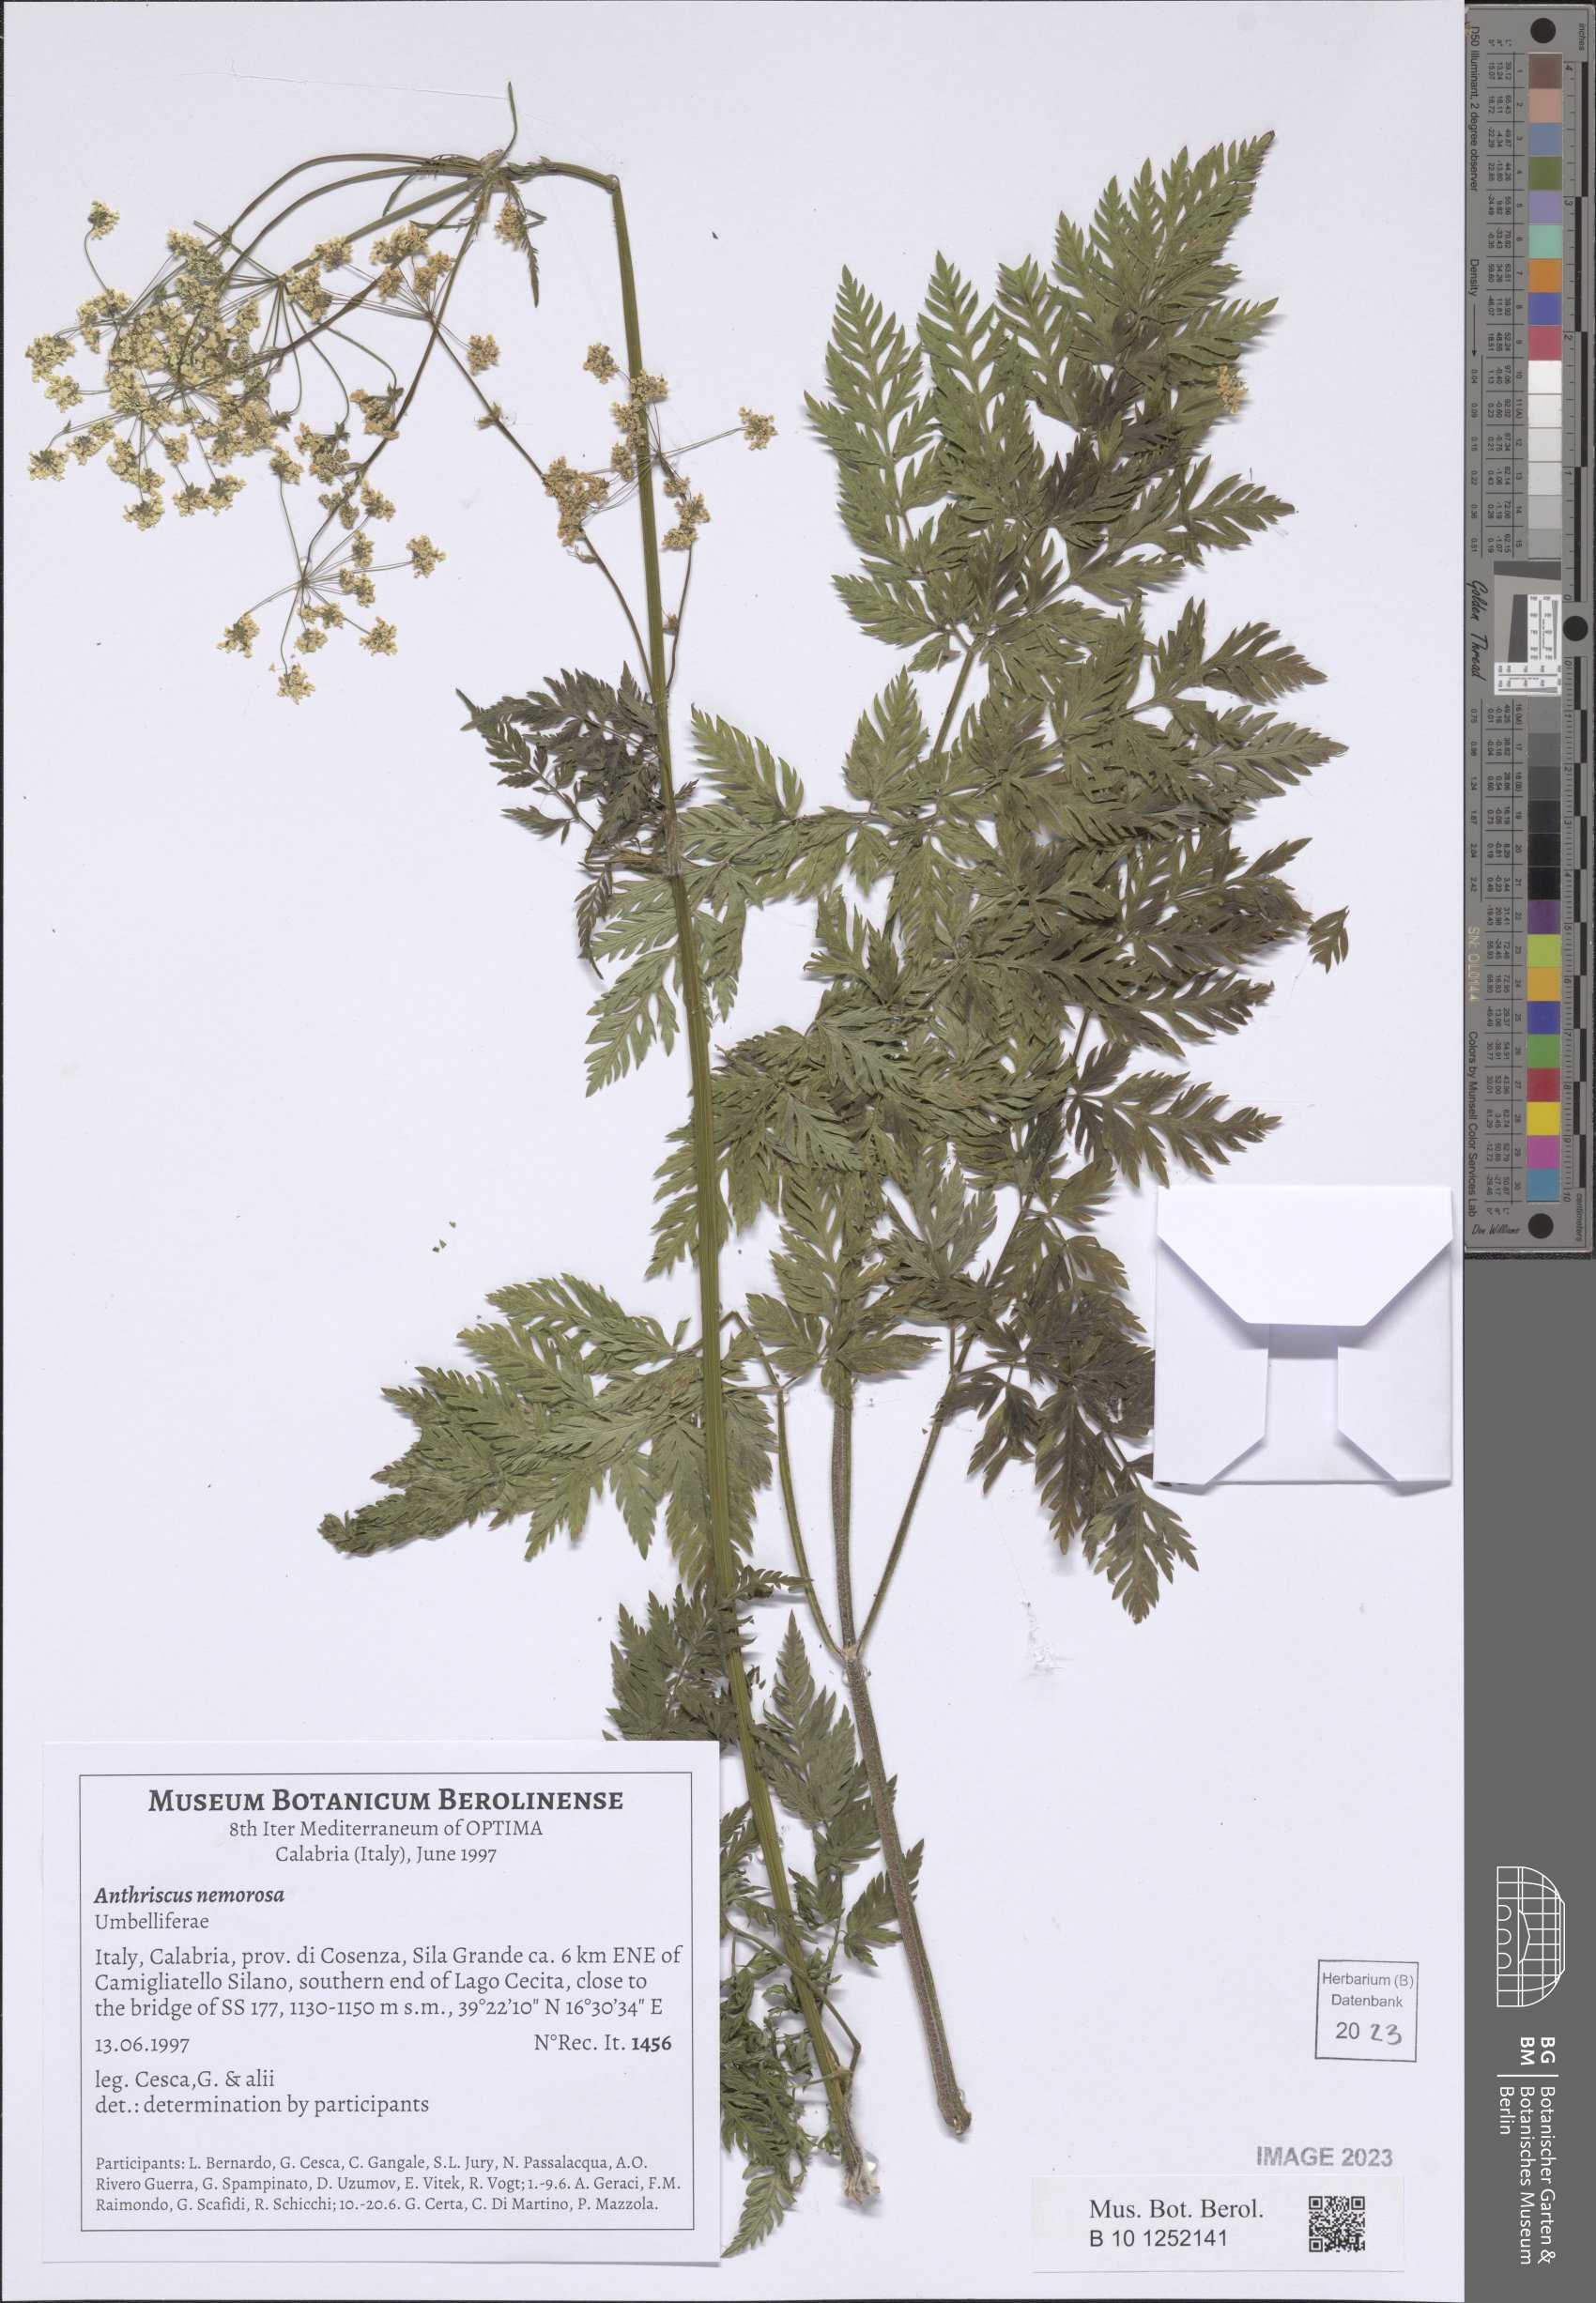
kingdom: Plantae
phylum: Tracheophyta
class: Magnoliopsida
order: Apiales
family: Apiaceae
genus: Anthriscus
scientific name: Anthriscus sylvestris
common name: Cow parsley
